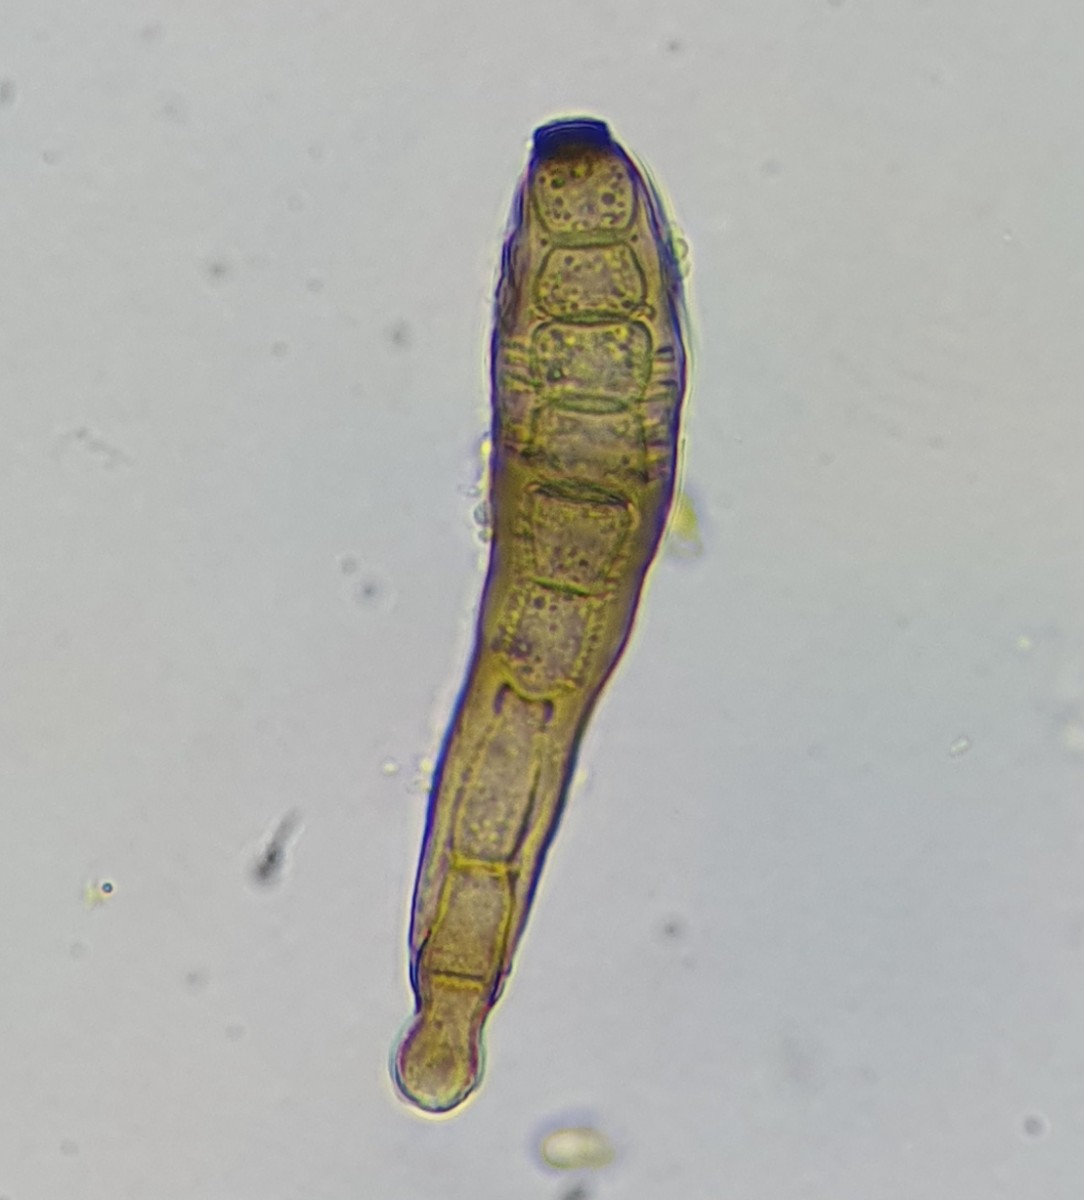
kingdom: Fungi
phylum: Ascomycota
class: Dothideomycetes
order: Pleosporales
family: Massarinaceae
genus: Exosporium
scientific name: Exosporium tiliae
